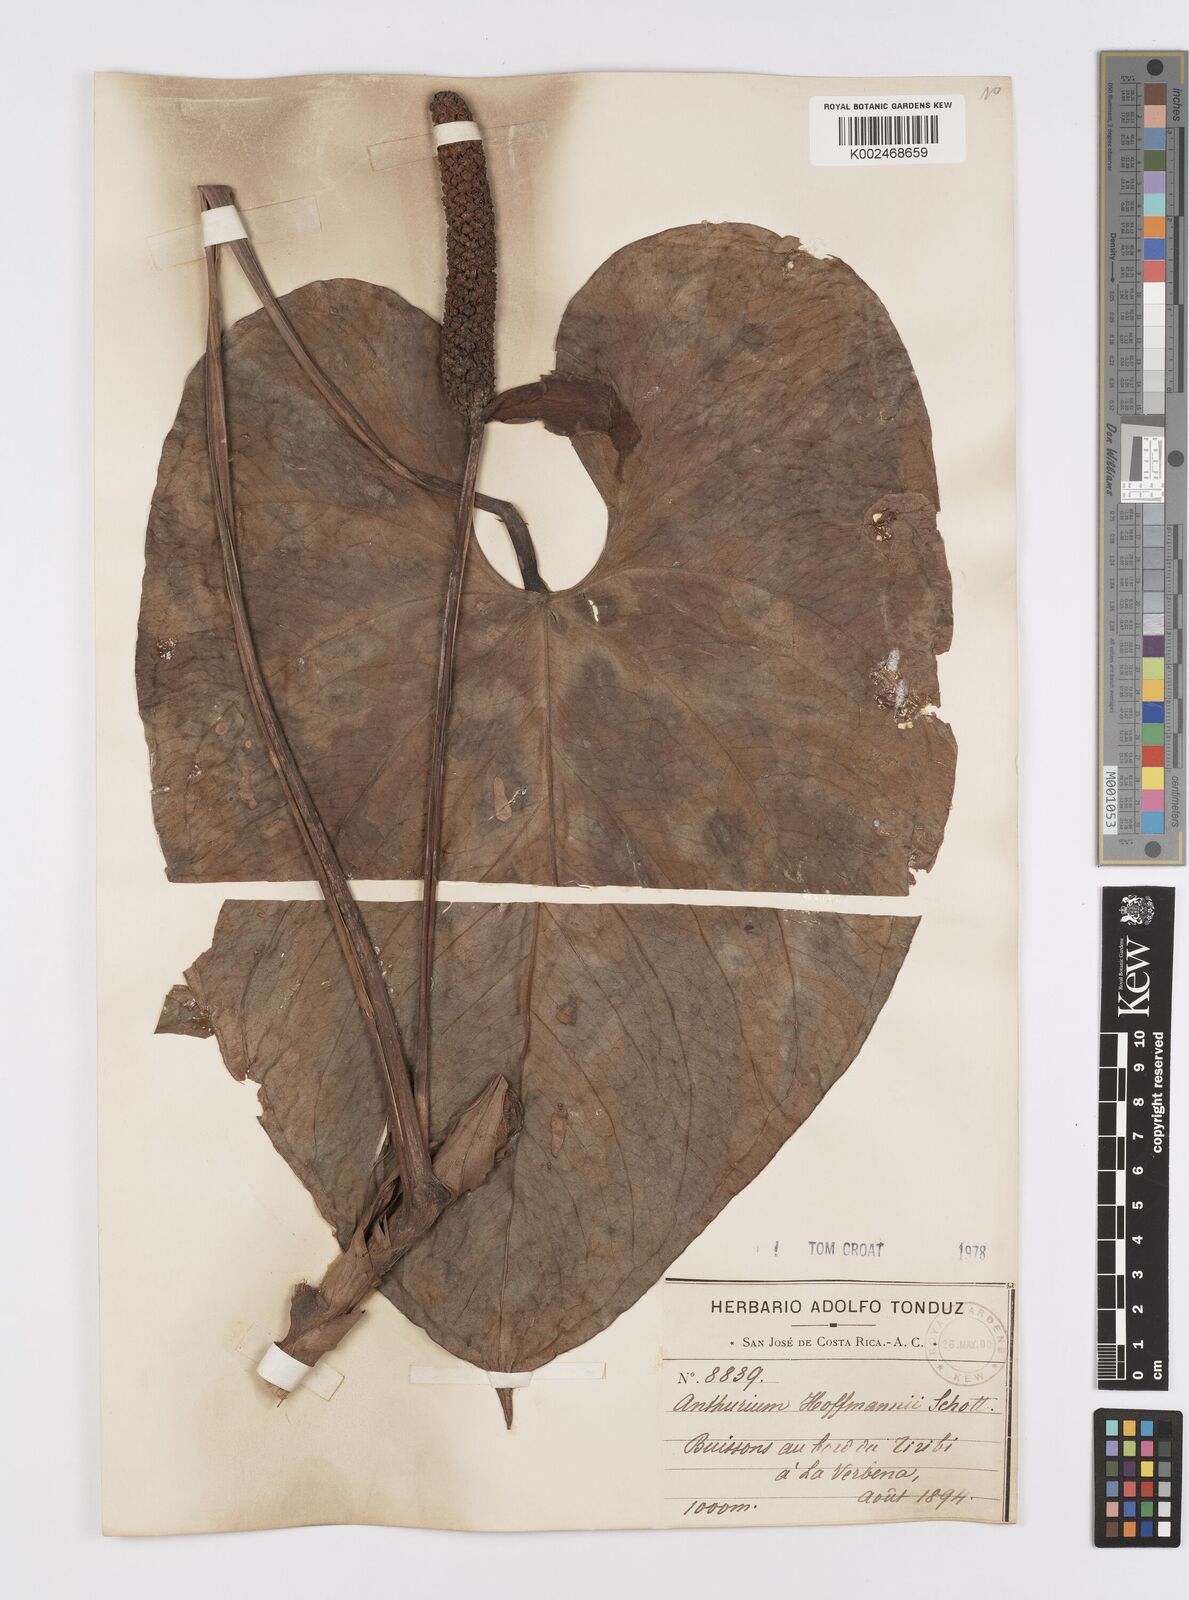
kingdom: Plantae
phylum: Tracheophyta
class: Liliopsida
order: Alismatales
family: Araceae
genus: Anthurium
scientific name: Anthurium hoffmannii
